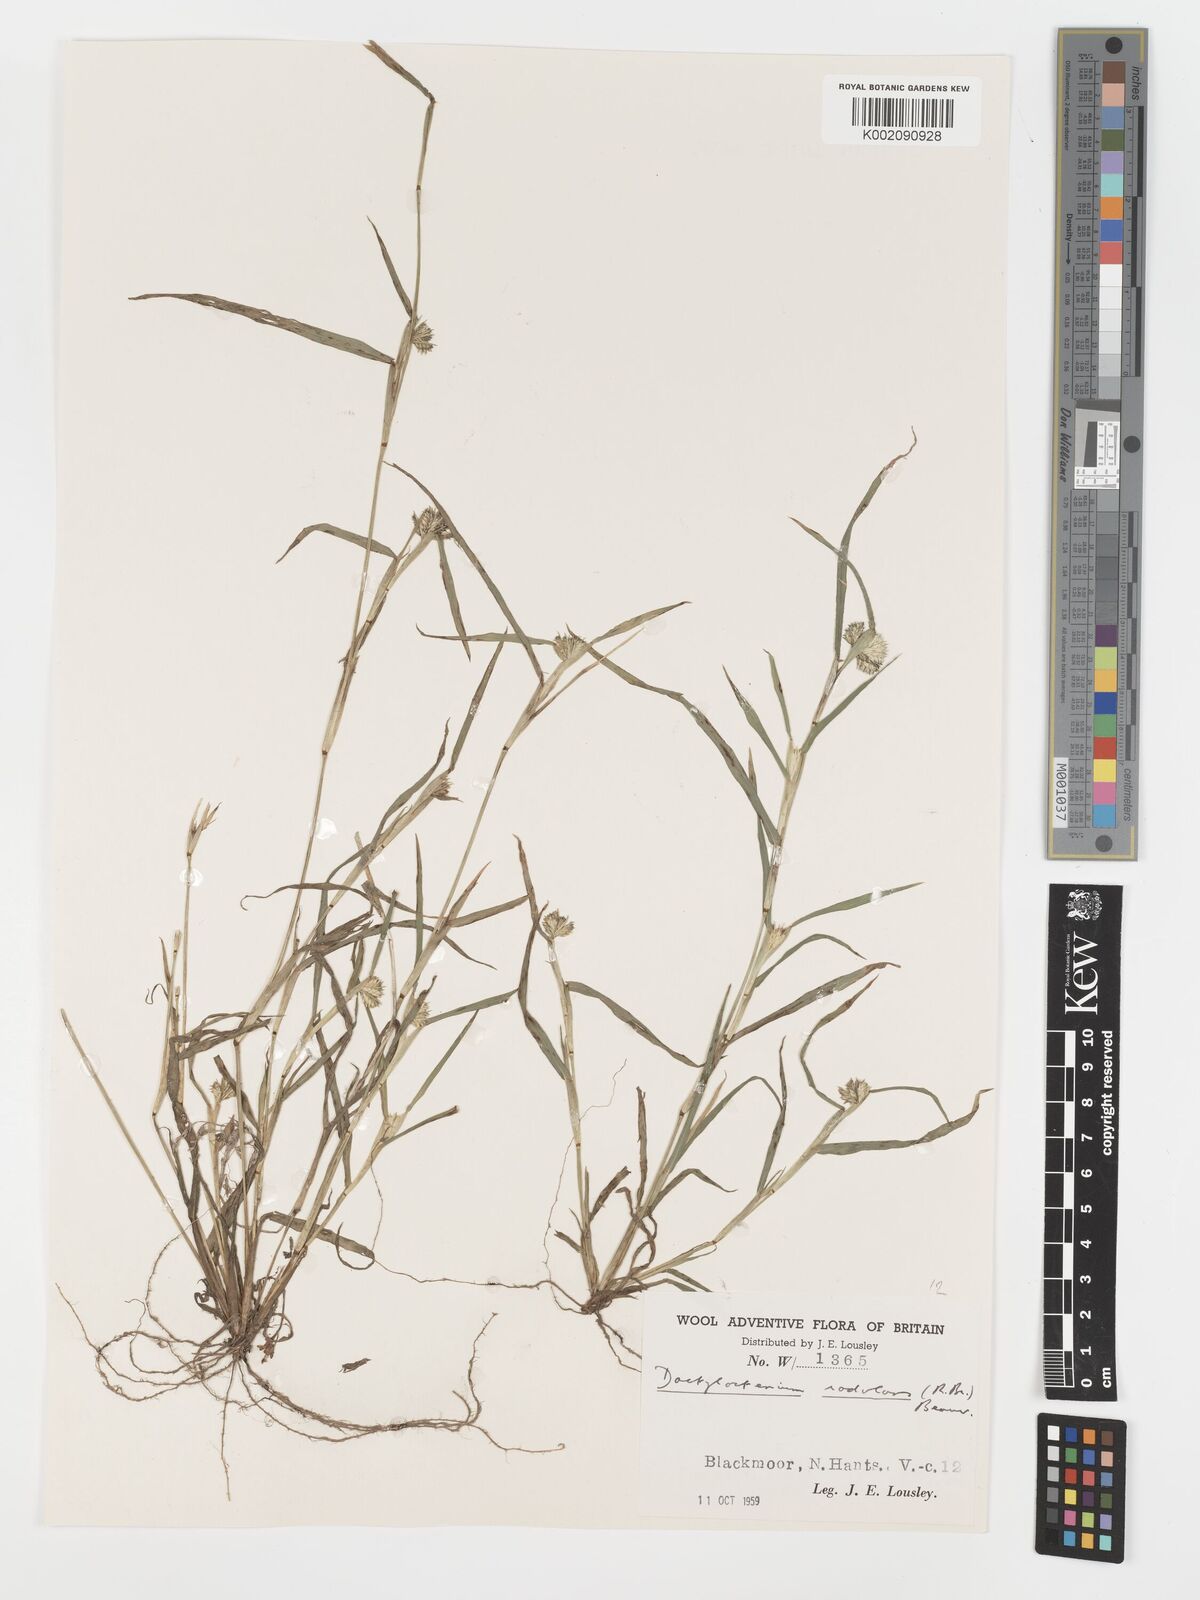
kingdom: Plantae
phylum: Tracheophyta
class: Liliopsida
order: Poales
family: Poaceae
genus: Dactyloctenium
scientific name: Dactyloctenium radulans
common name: Button-grass
